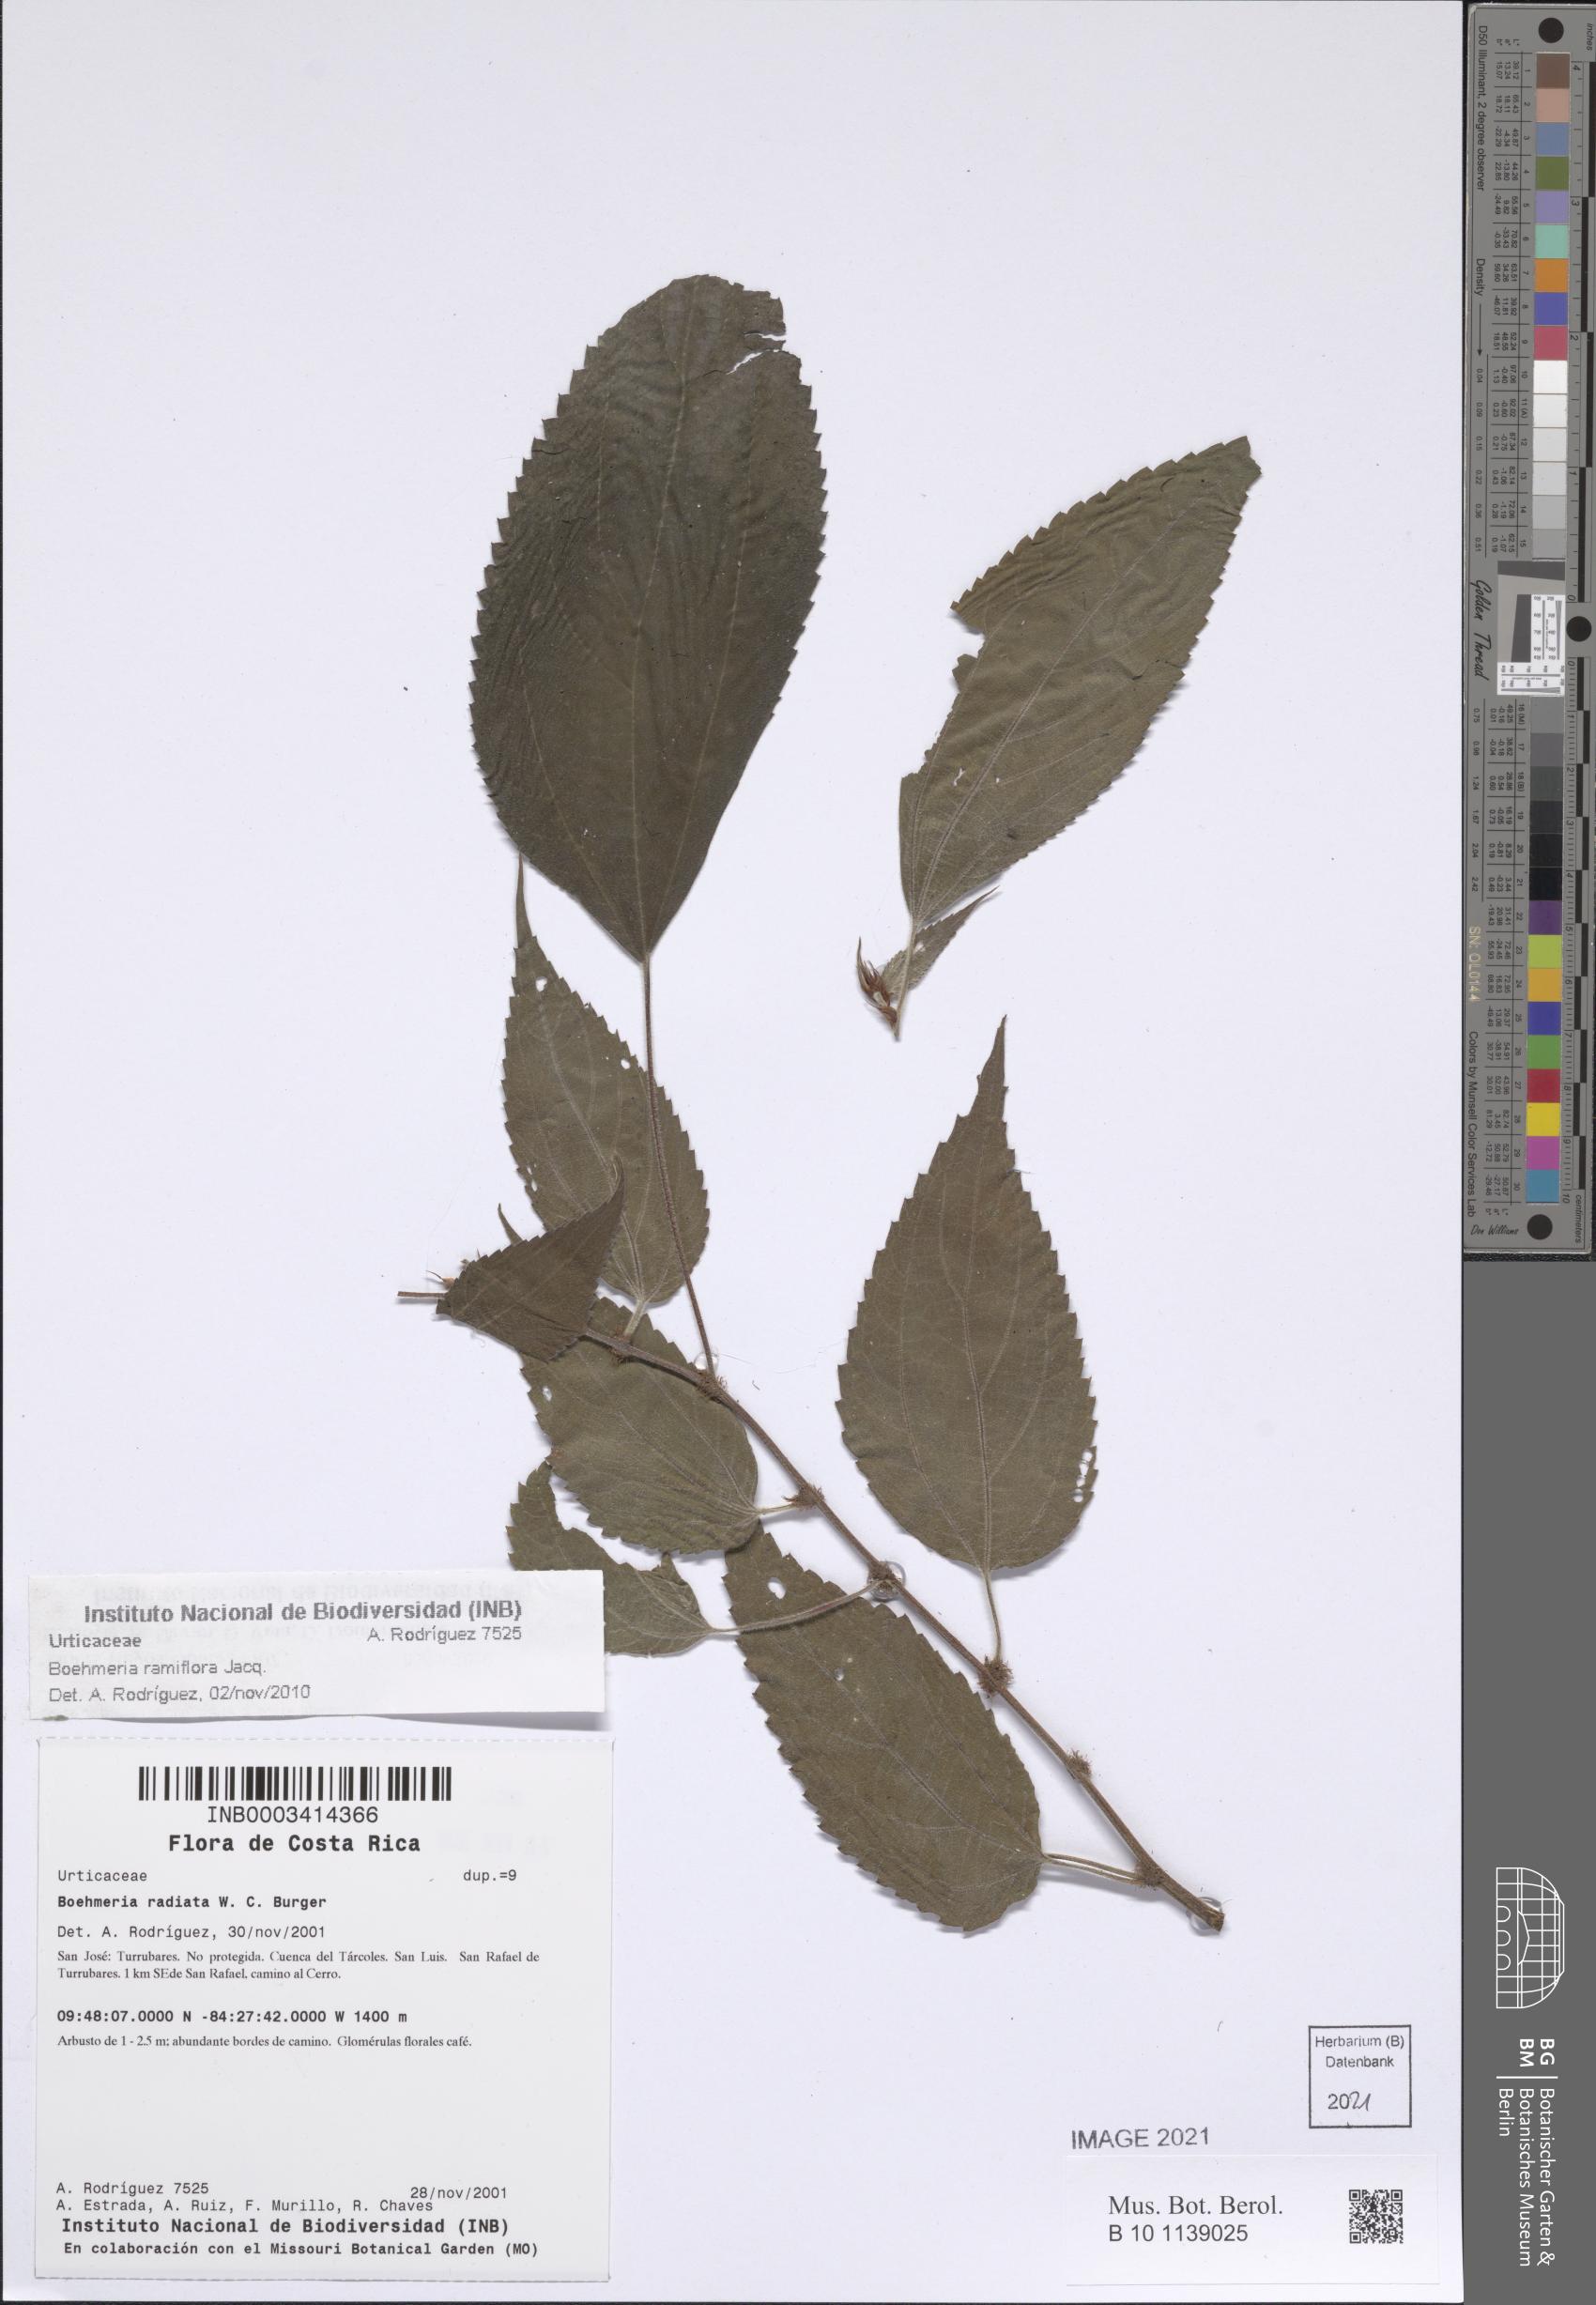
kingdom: Plantae
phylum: Tracheophyta
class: Magnoliopsida
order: Rosales
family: Urticaceae
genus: Boehmeria
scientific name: Boehmeria ramiflora
